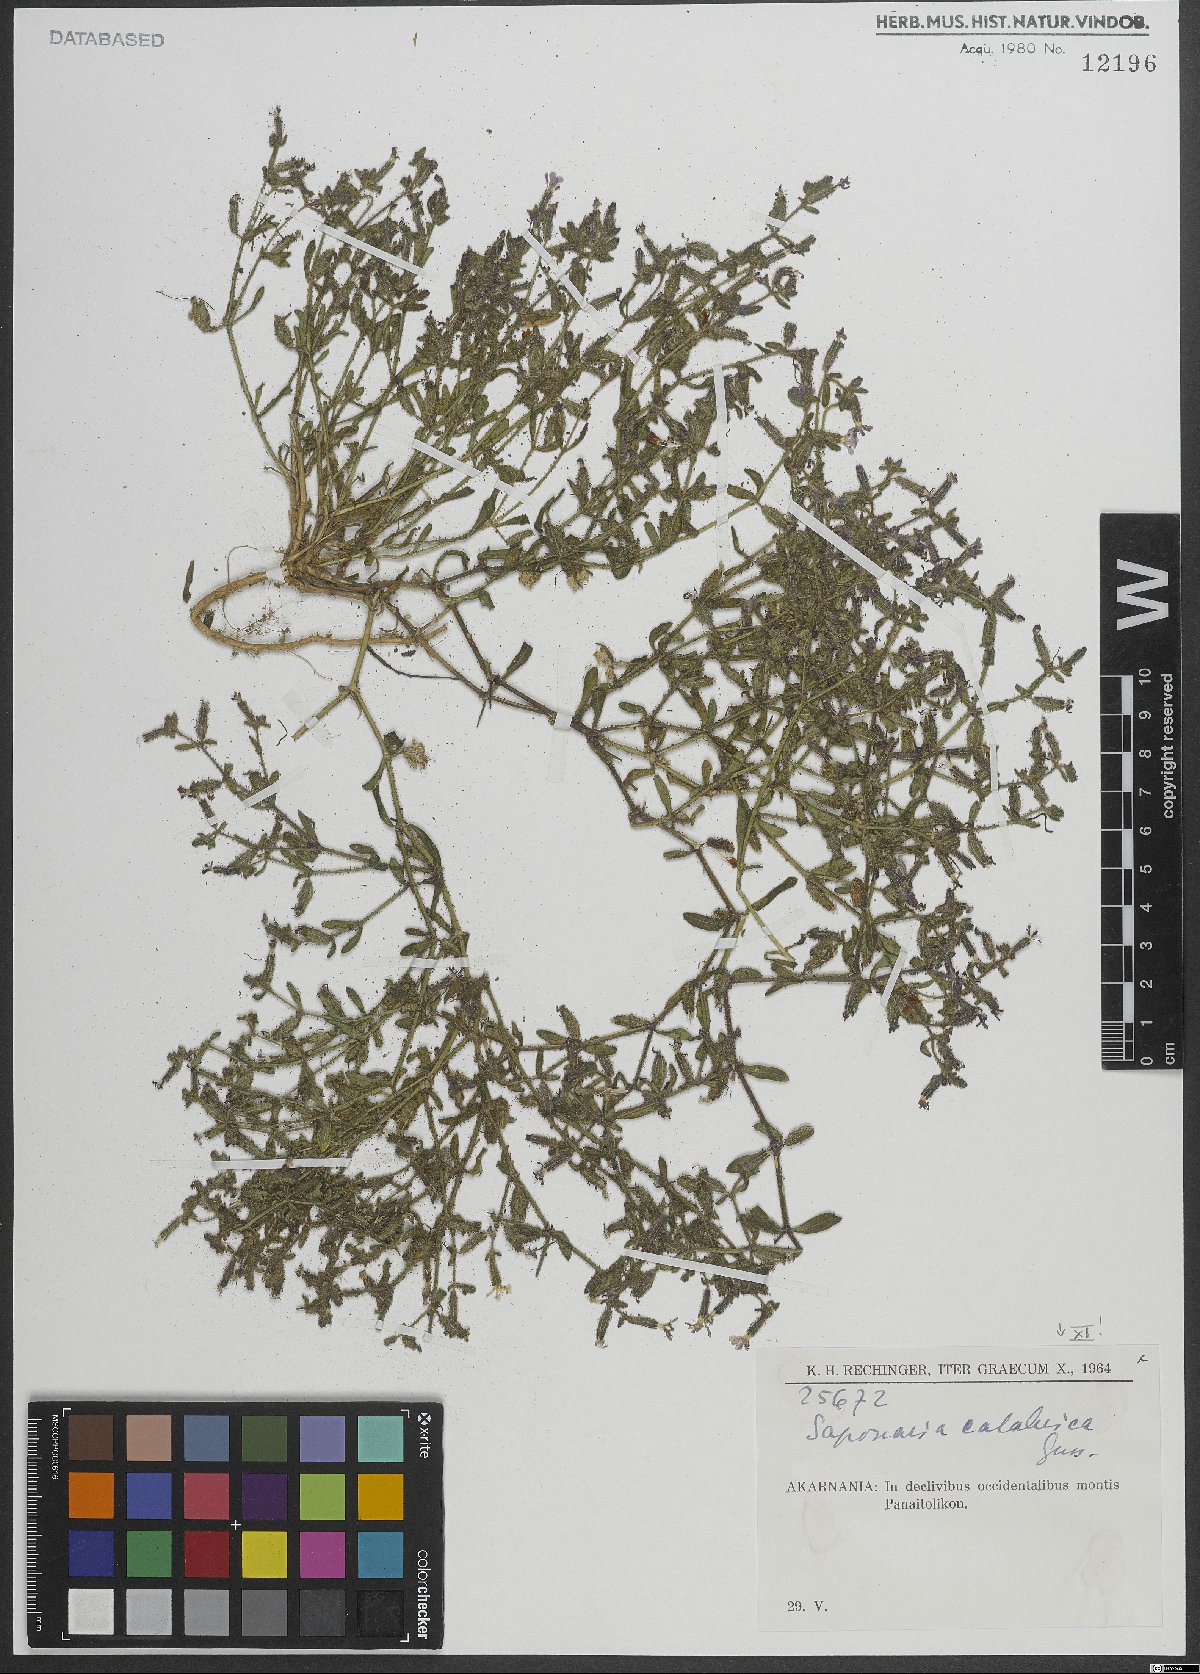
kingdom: Plantae
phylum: Tracheophyta
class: Magnoliopsida
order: Caryophyllales
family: Caryophyllaceae
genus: Saponaria
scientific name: Saponaria calabrica
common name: Adriatic soapwort
